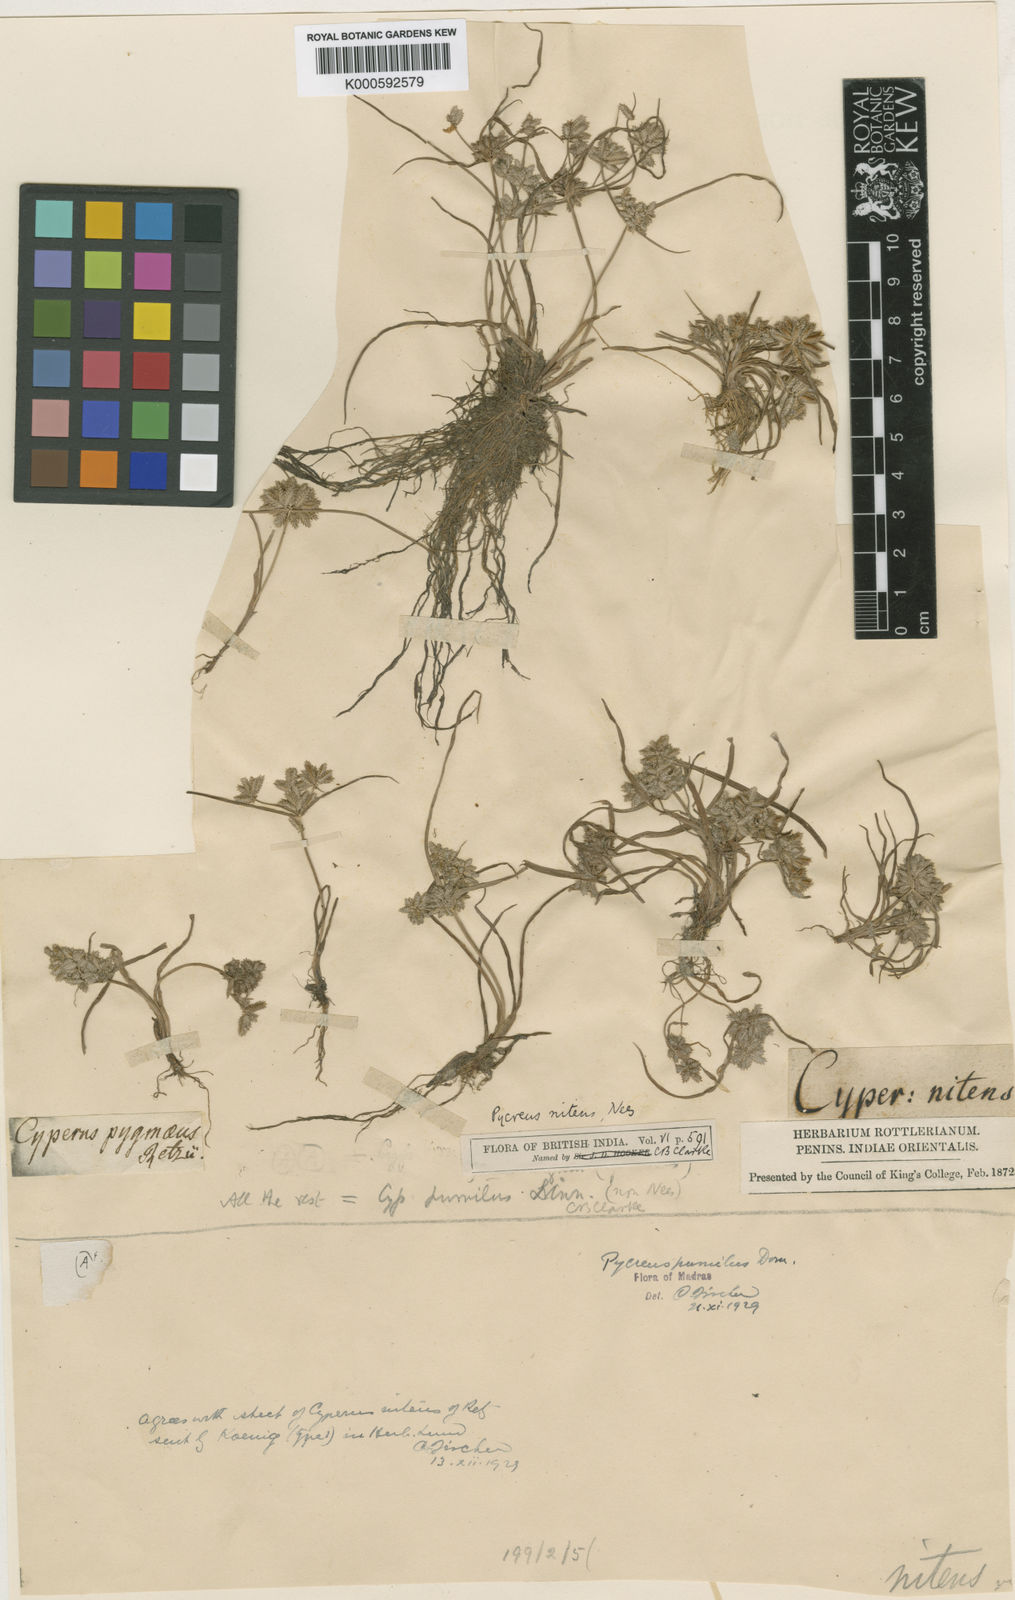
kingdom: Plantae
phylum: Tracheophyta
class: Liliopsida
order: Poales
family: Cyperaceae
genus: Cyperus
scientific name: Cyperus
